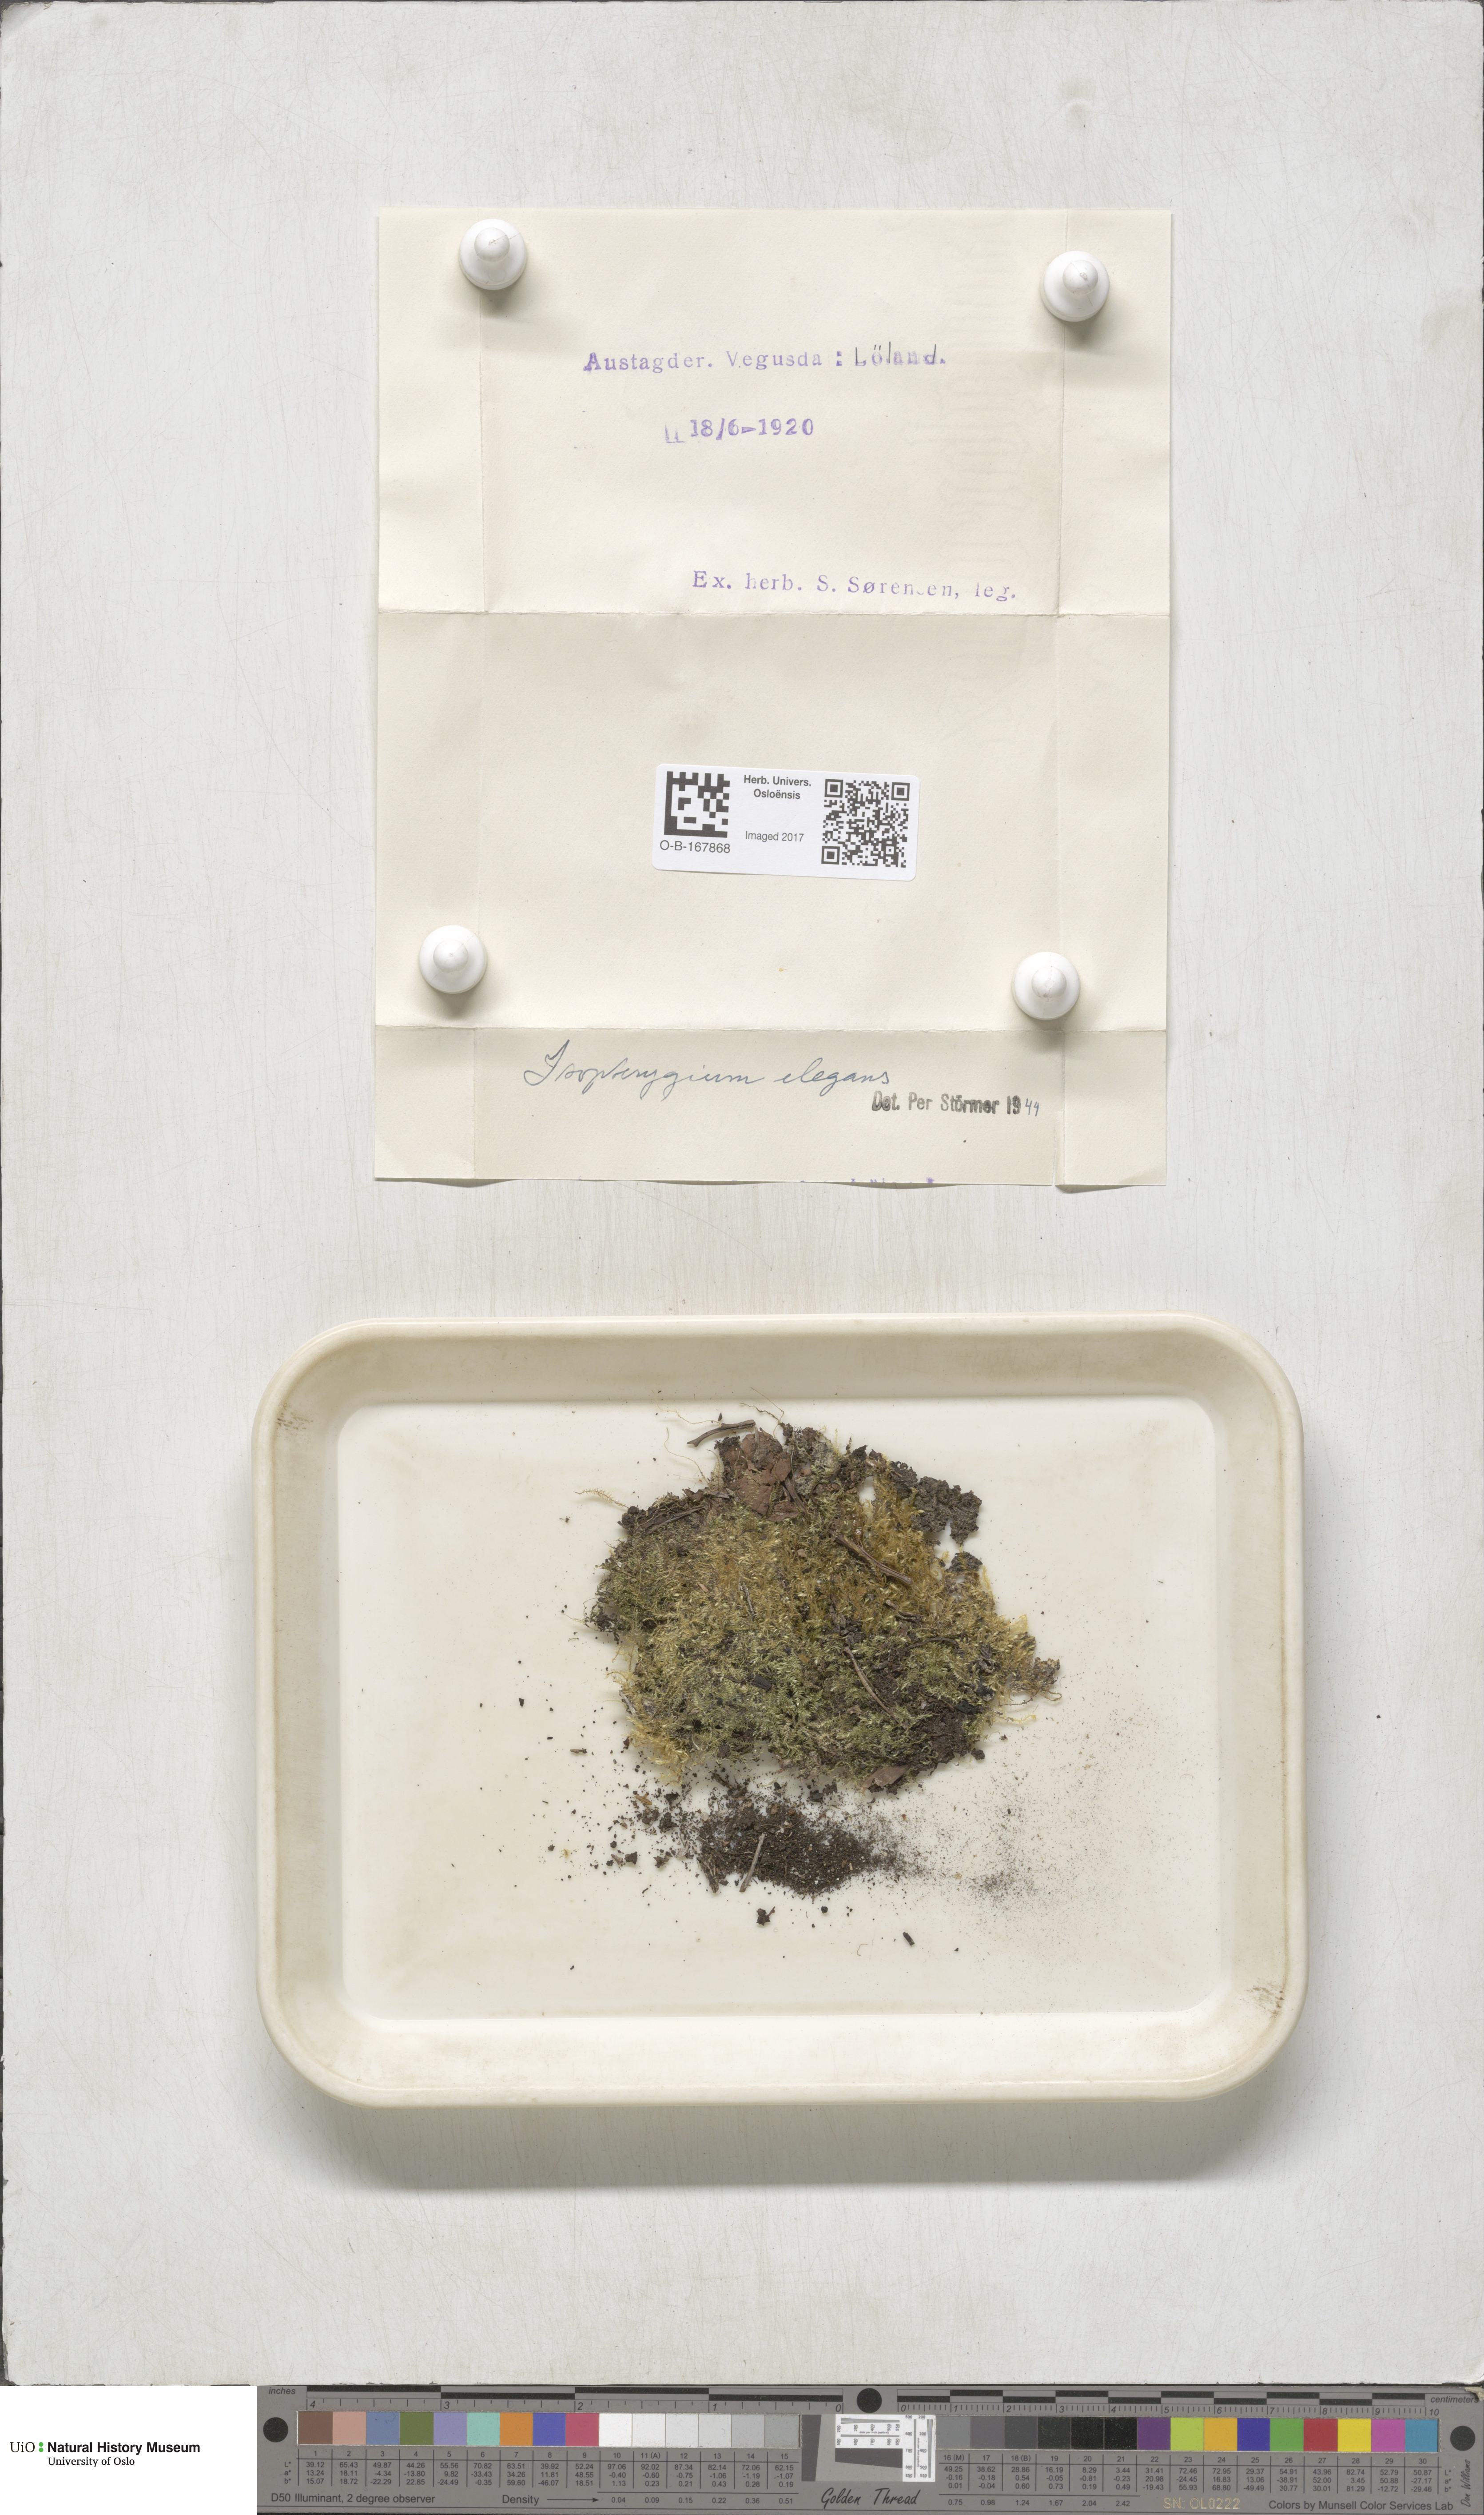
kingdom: Plantae
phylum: Bryophyta
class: Bryopsida
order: Hypnales
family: Plagiotheciaceae
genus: Pseudotaxiphyllum
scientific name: Pseudotaxiphyllum elegans
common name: Elegant silk moss
